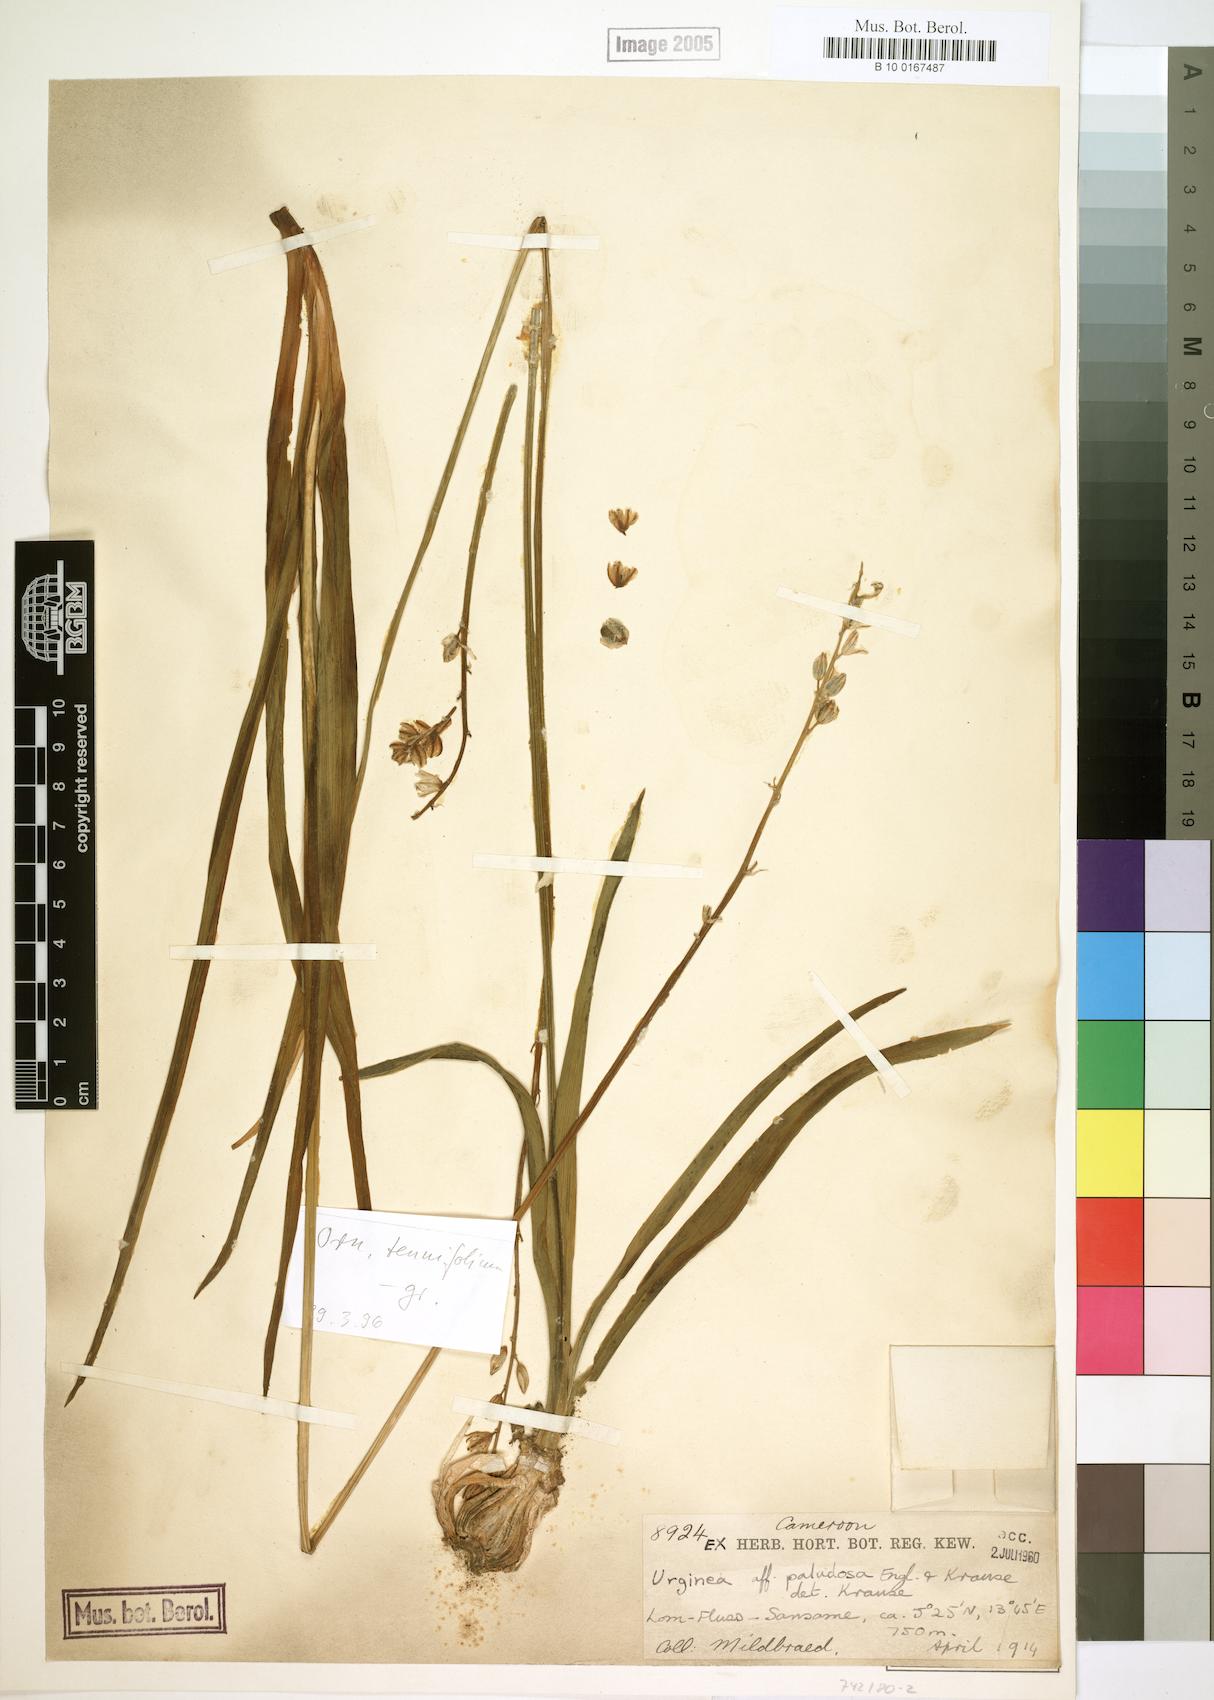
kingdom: Plantae
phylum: Tracheophyta
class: Liliopsida
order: Asparagales
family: Asparagaceae
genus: Drimia
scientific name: Drimia glaucescens
